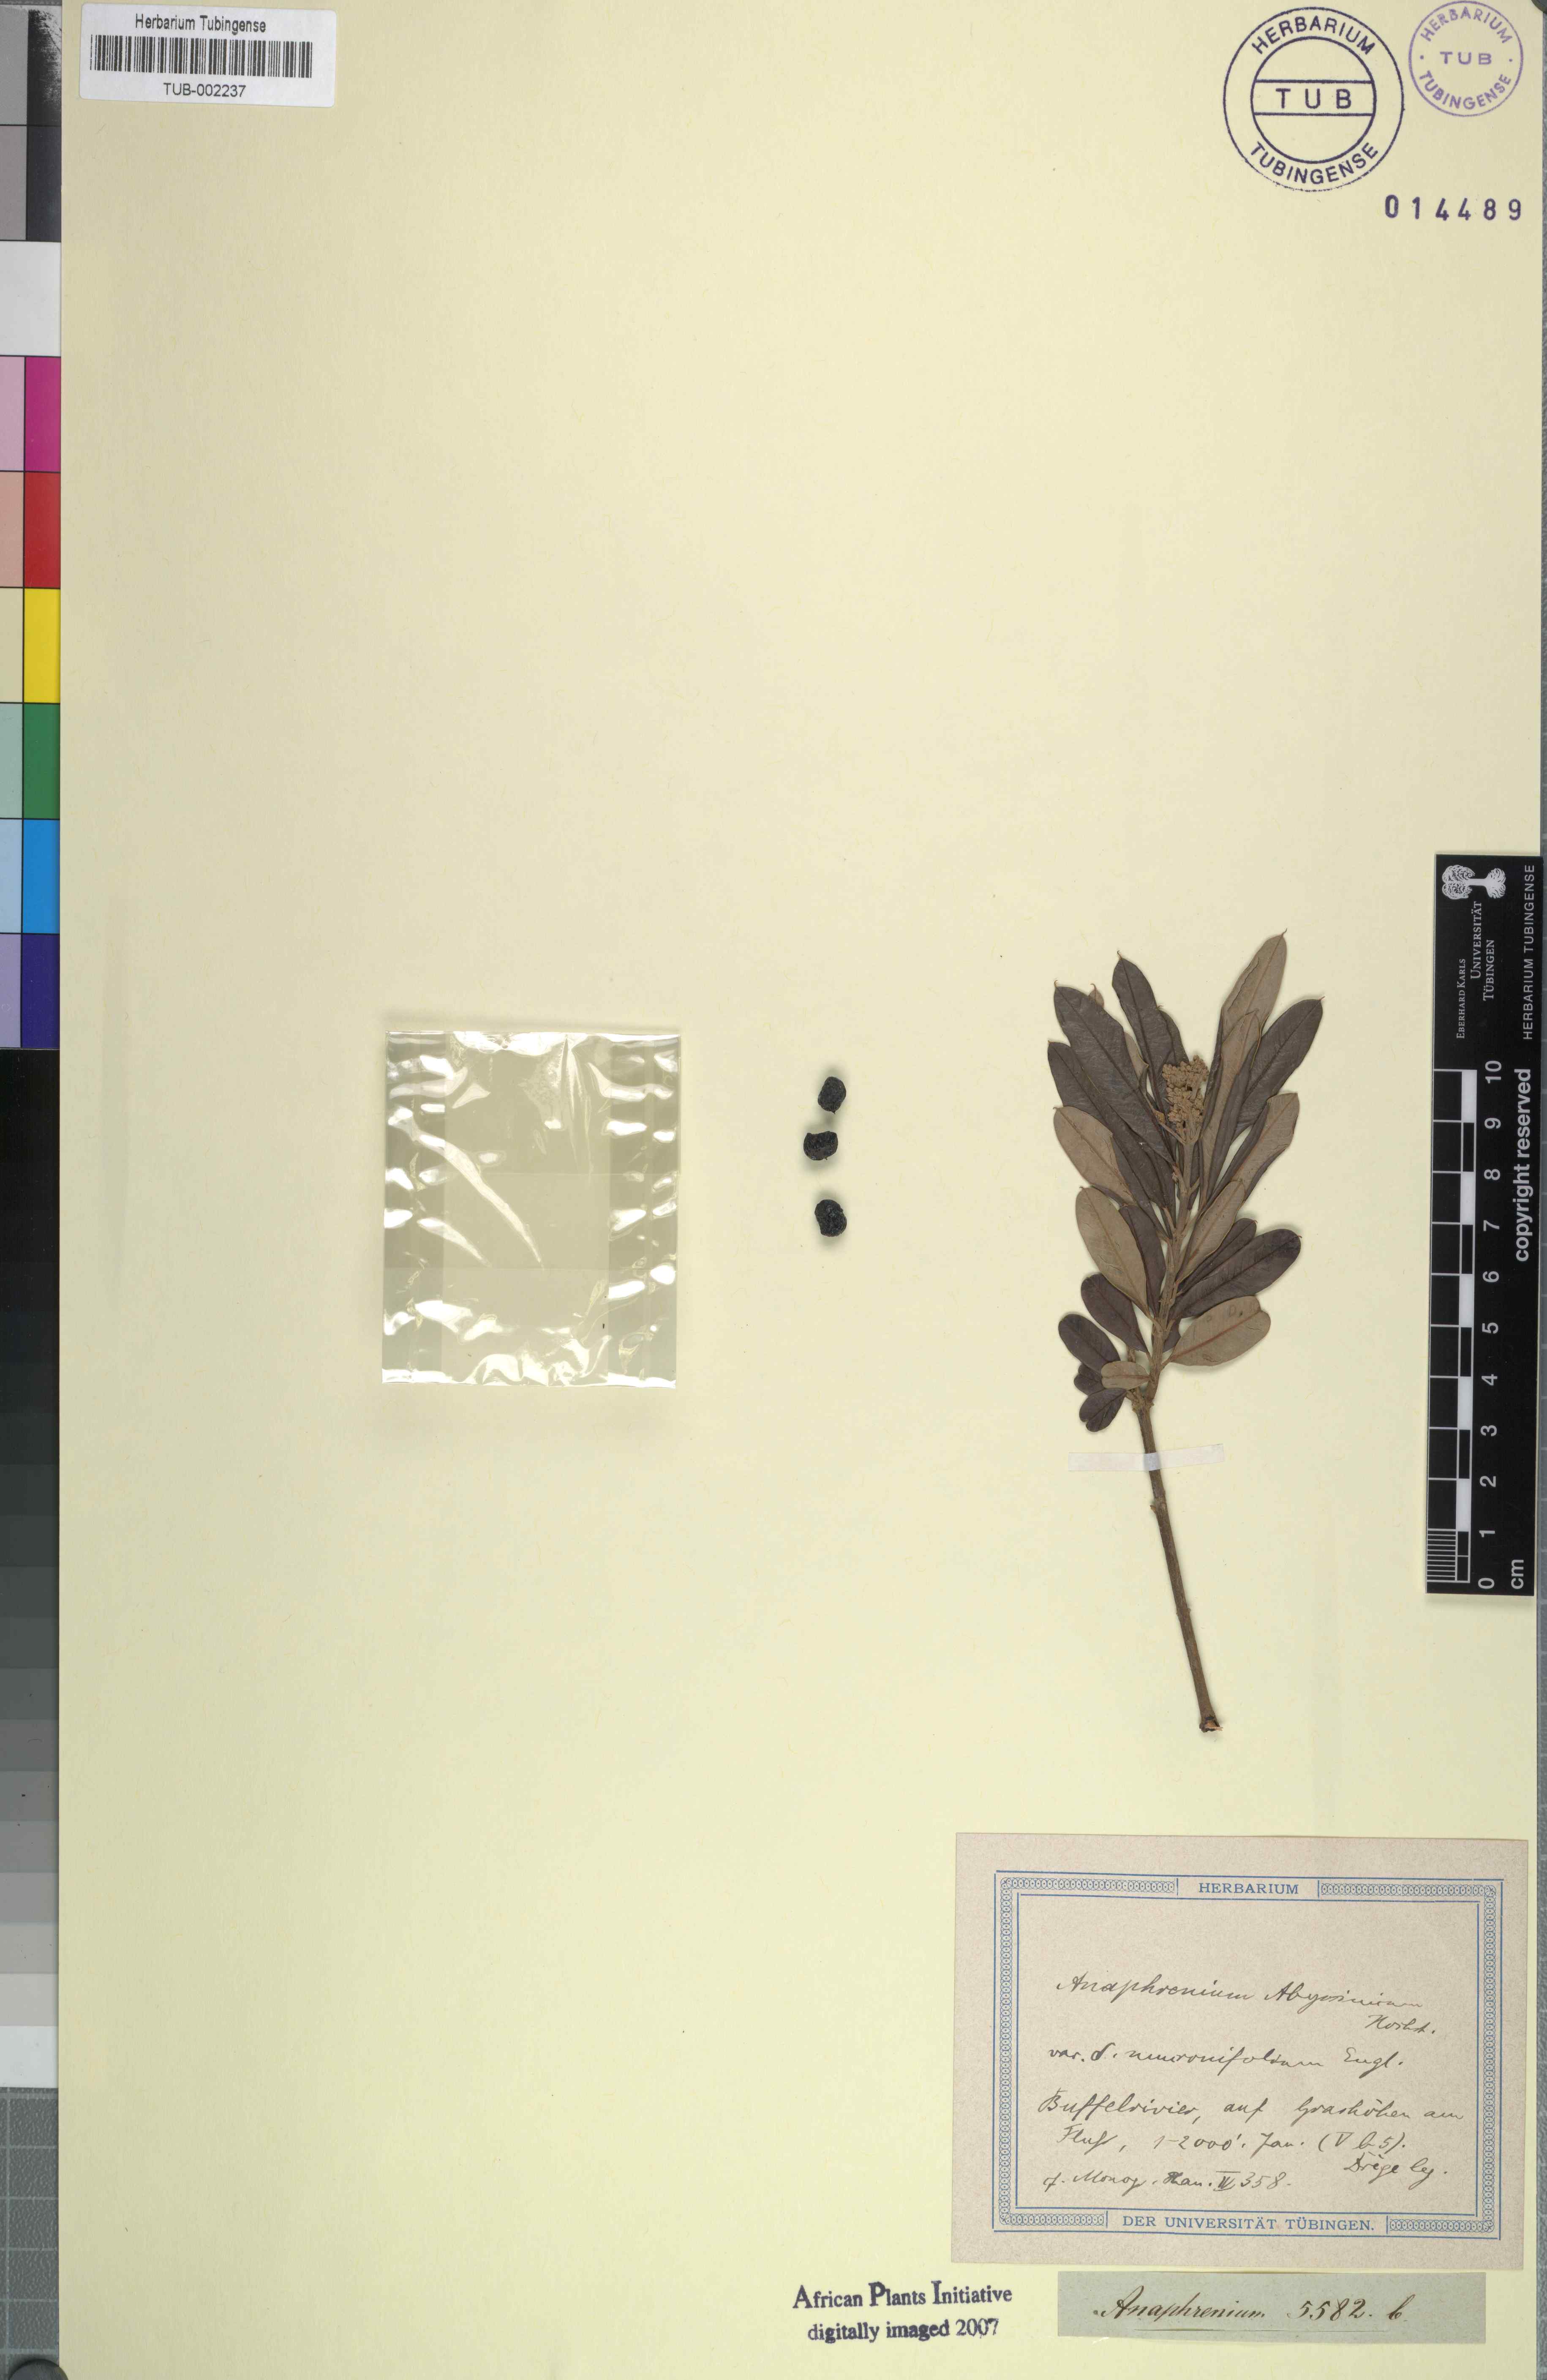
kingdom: Plantae
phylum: Tracheophyta
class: Magnoliopsida
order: Sapindales
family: Anacardiaceae
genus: Ozoroa
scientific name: Ozoroa insignis
